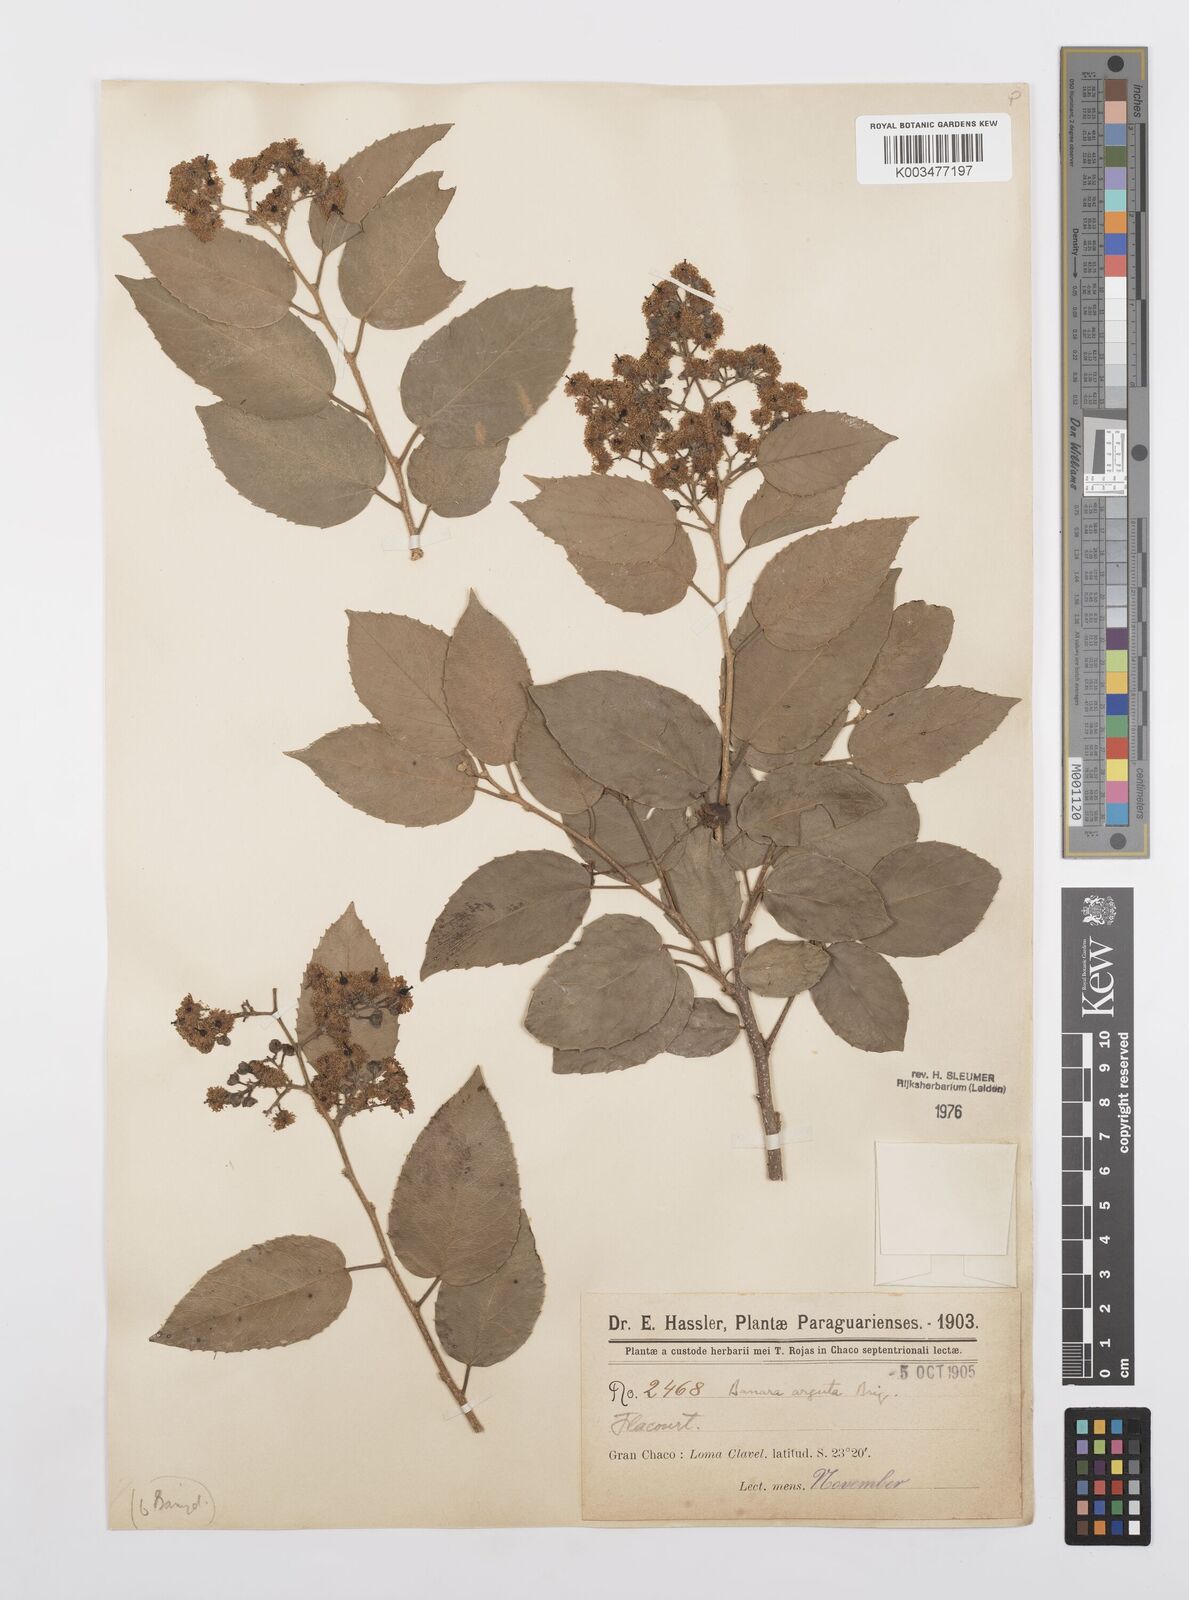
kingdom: Plantae
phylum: Tracheophyta
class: Magnoliopsida
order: Malpighiales
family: Salicaceae
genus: Banara
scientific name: Banara arguta
